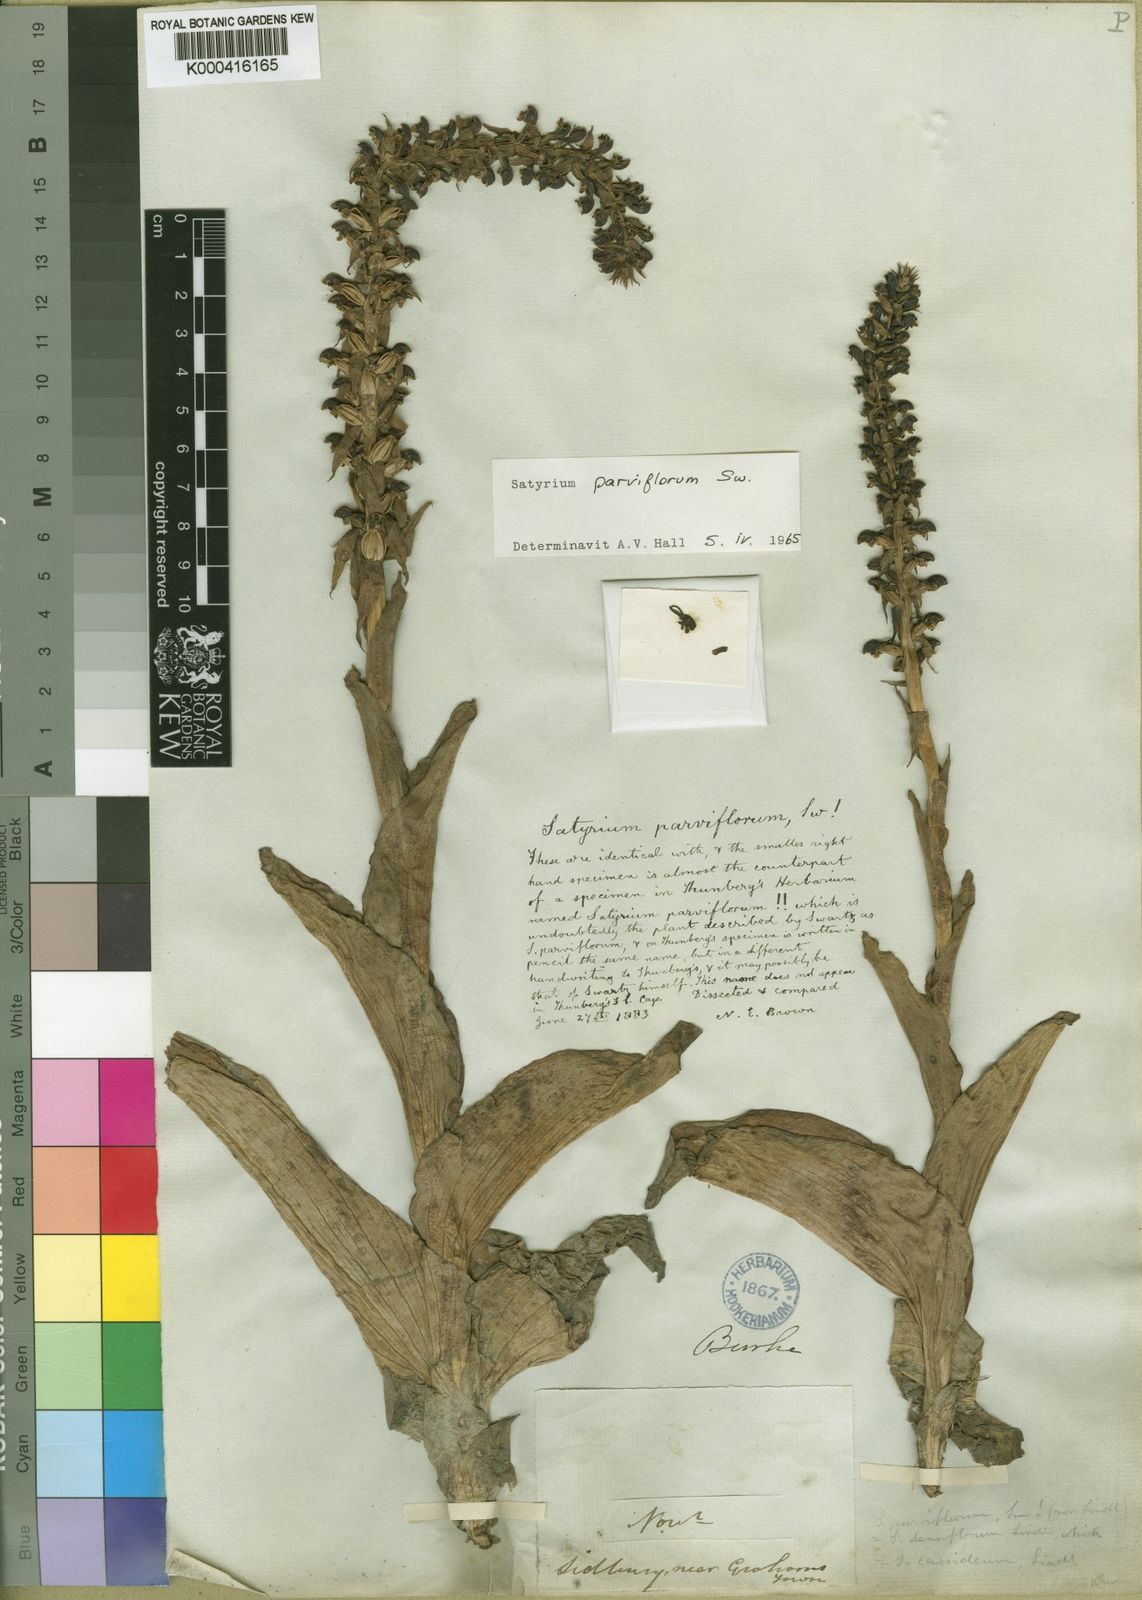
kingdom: Plantae
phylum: Tracheophyta
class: Liliopsida
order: Asparagales
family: Orchidaceae
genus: Satyrium
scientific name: Satyrium parviflorum
